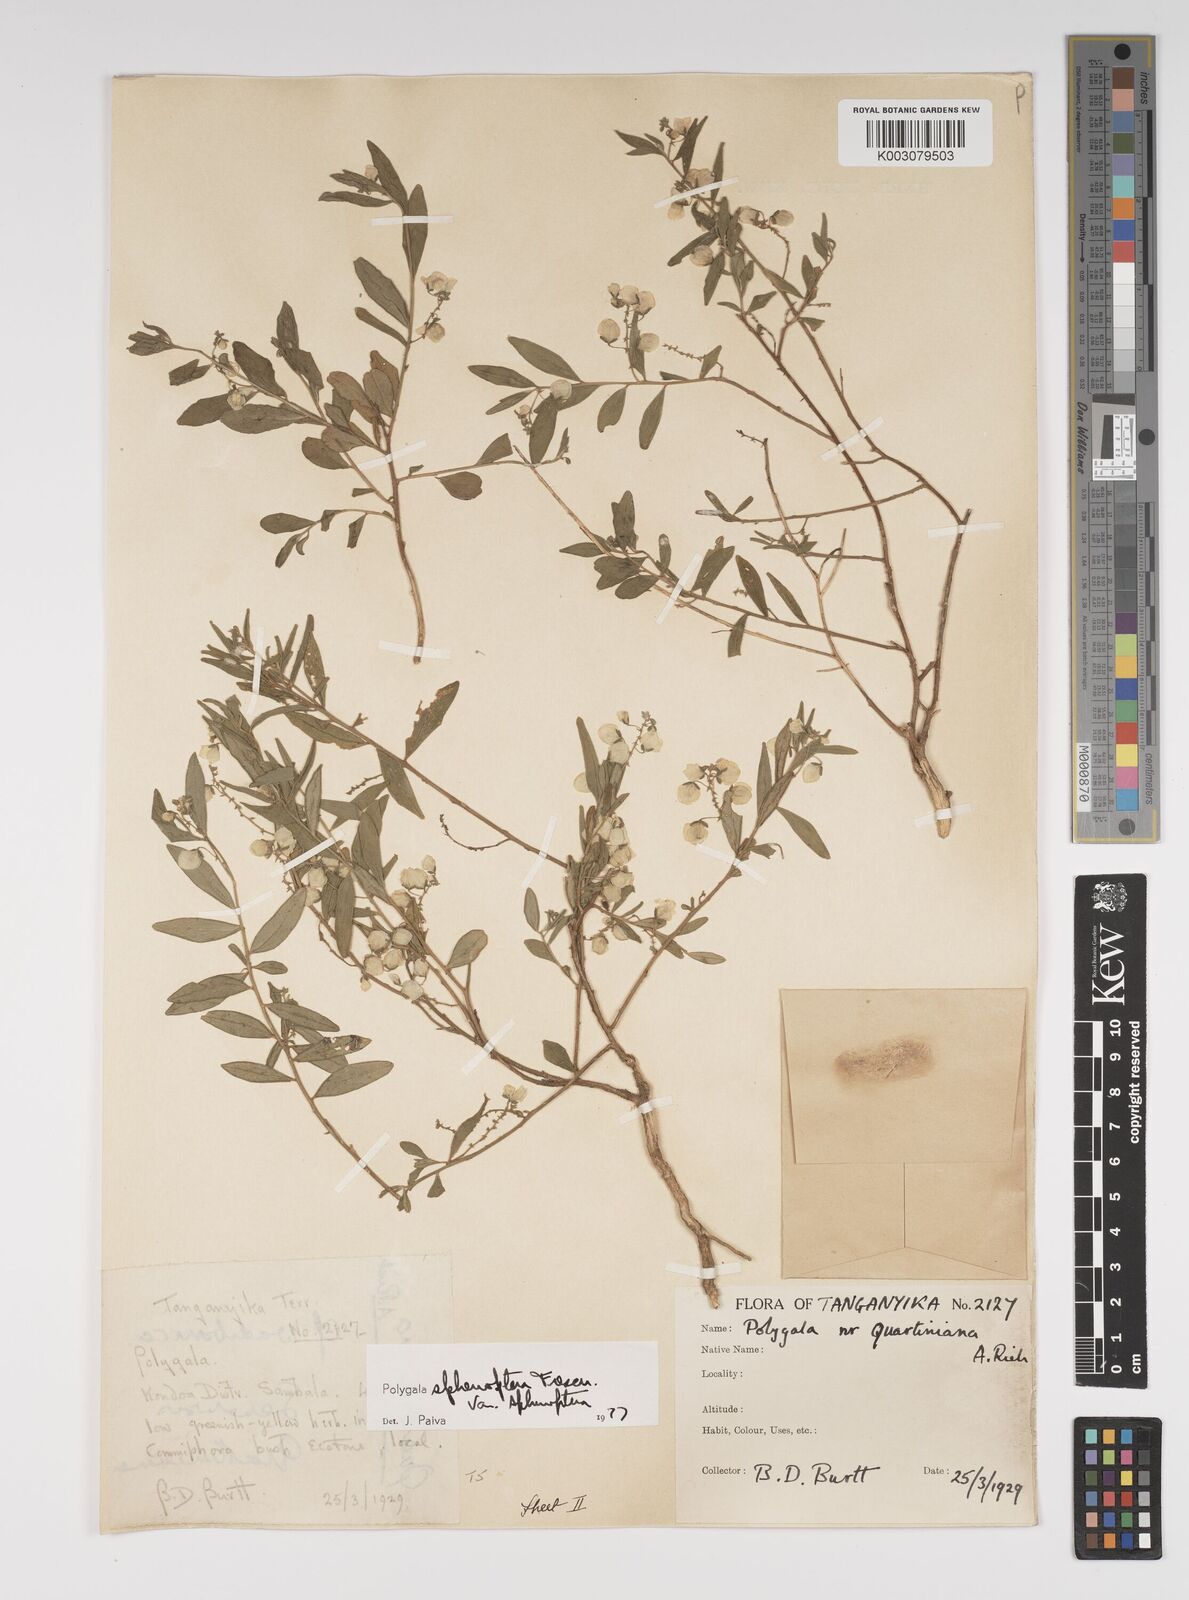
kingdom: Plantae
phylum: Tracheophyta
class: Magnoliopsida
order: Fabales
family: Polygalaceae
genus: Polygala
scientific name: Polygala sphenoptera
